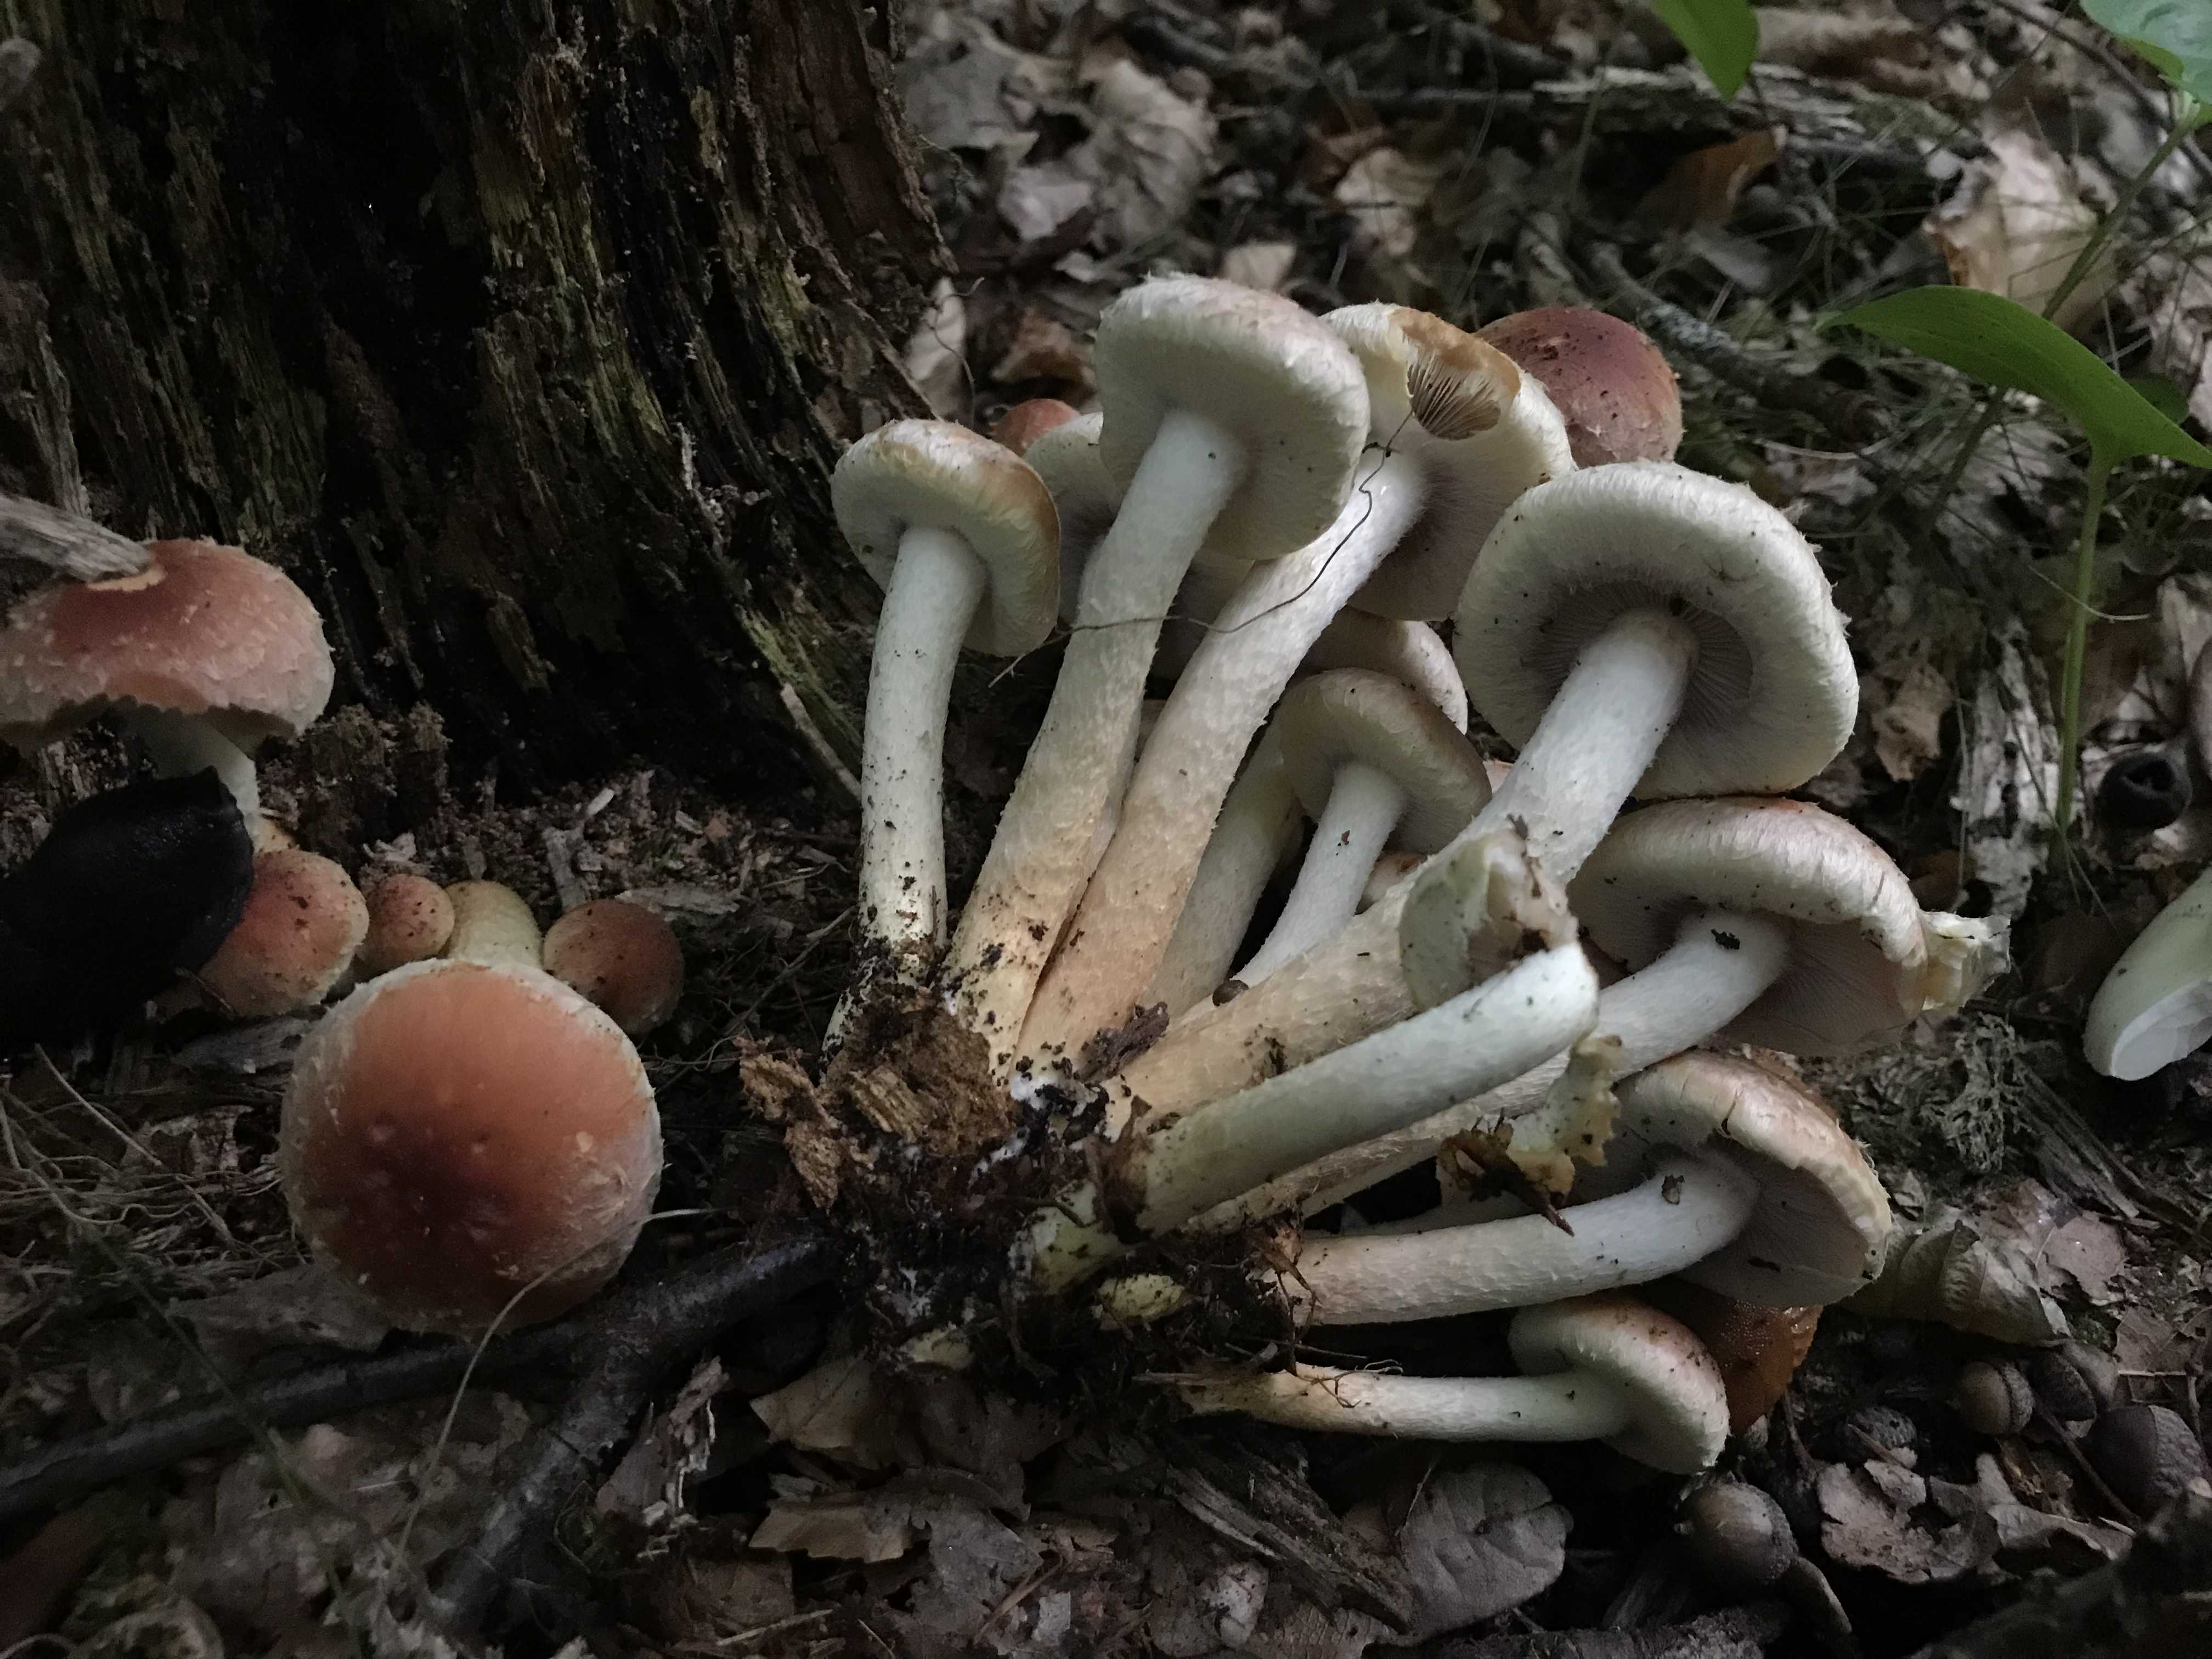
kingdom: Fungi
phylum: Basidiomycota
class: Agaricomycetes
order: Agaricales
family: Strophariaceae
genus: Hypholoma
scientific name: Hypholoma lateritium
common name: teglrød svovlhat
